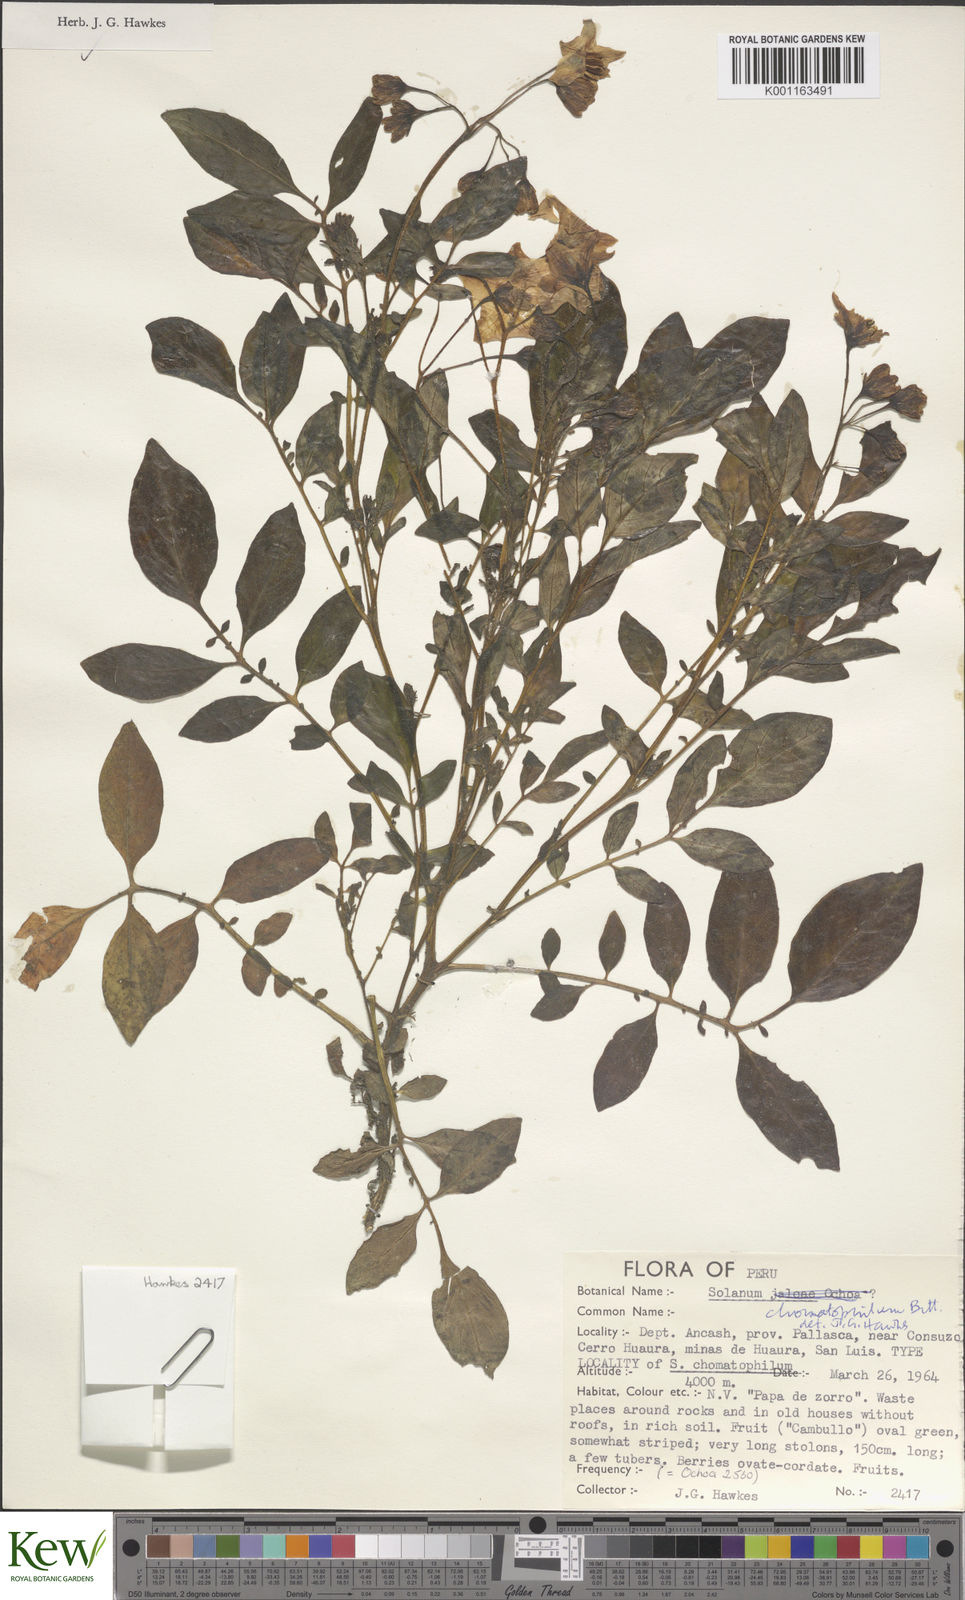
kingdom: Plantae
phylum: Tracheophyta
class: Magnoliopsida
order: Solanales
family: Solanaceae
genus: Solanum
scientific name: Solanum chomatophilum
